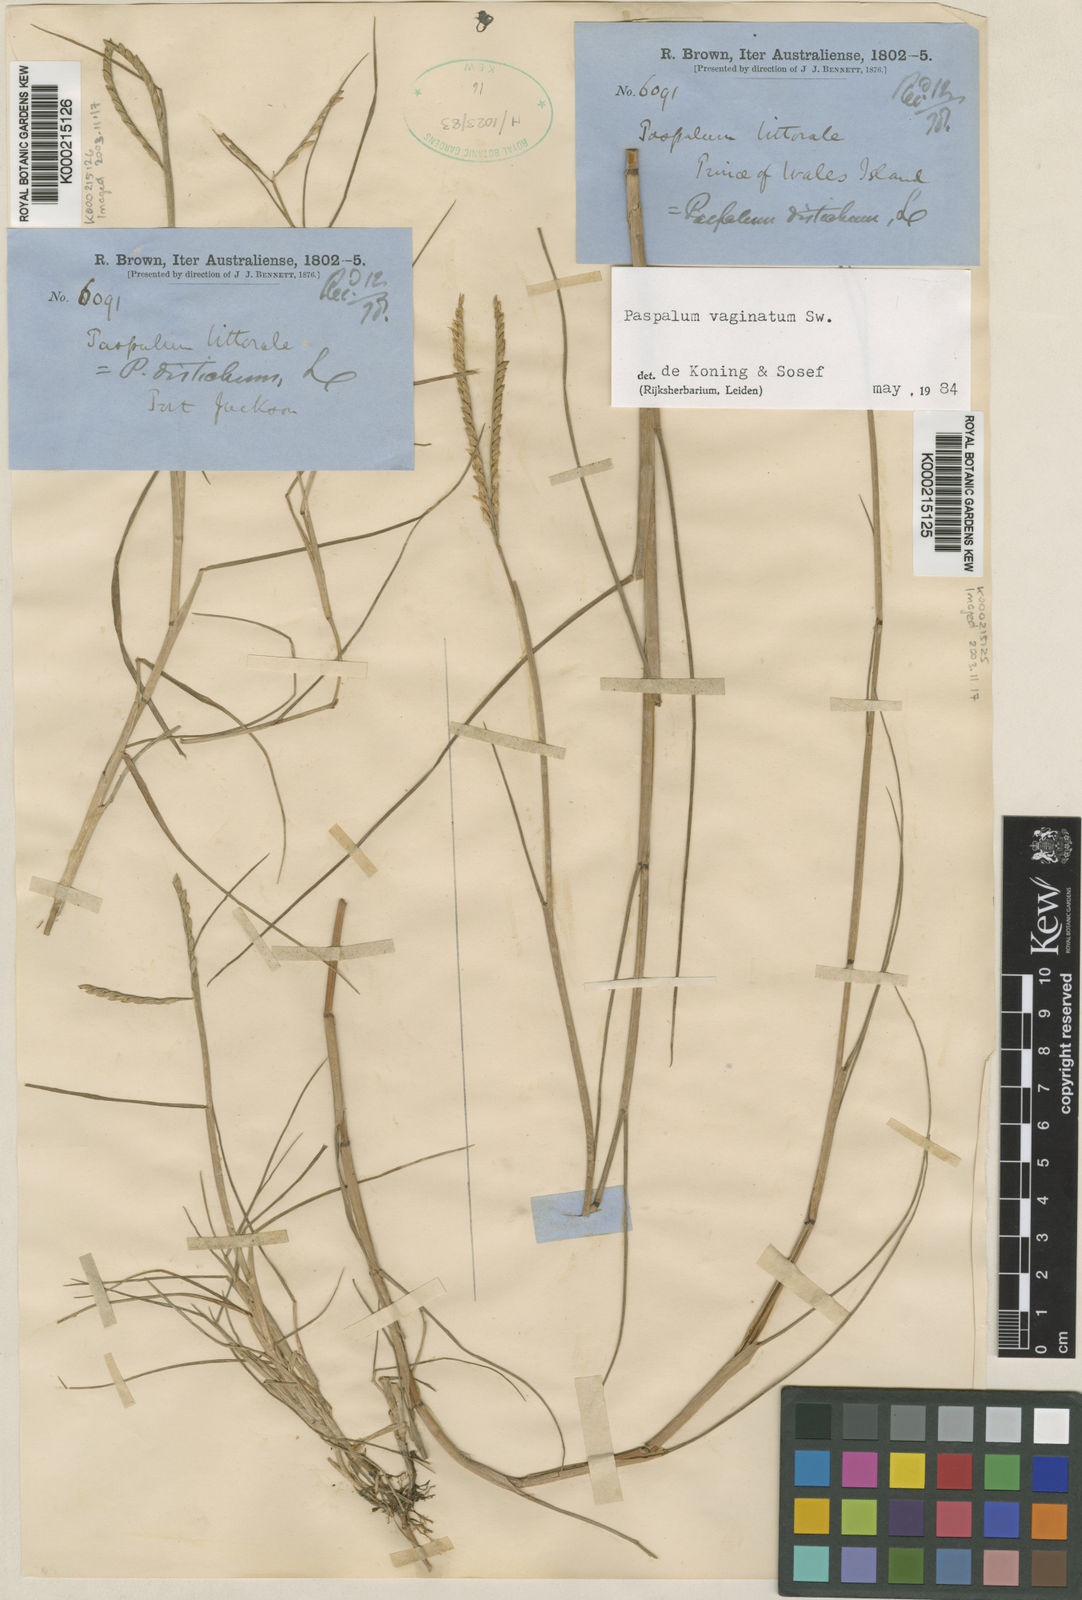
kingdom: Plantae
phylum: Tracheophyta
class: Liliopsida
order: Poales
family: Poaceae
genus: Paspalum
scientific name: Paspalum vaginatum
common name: Seashore paspalum
